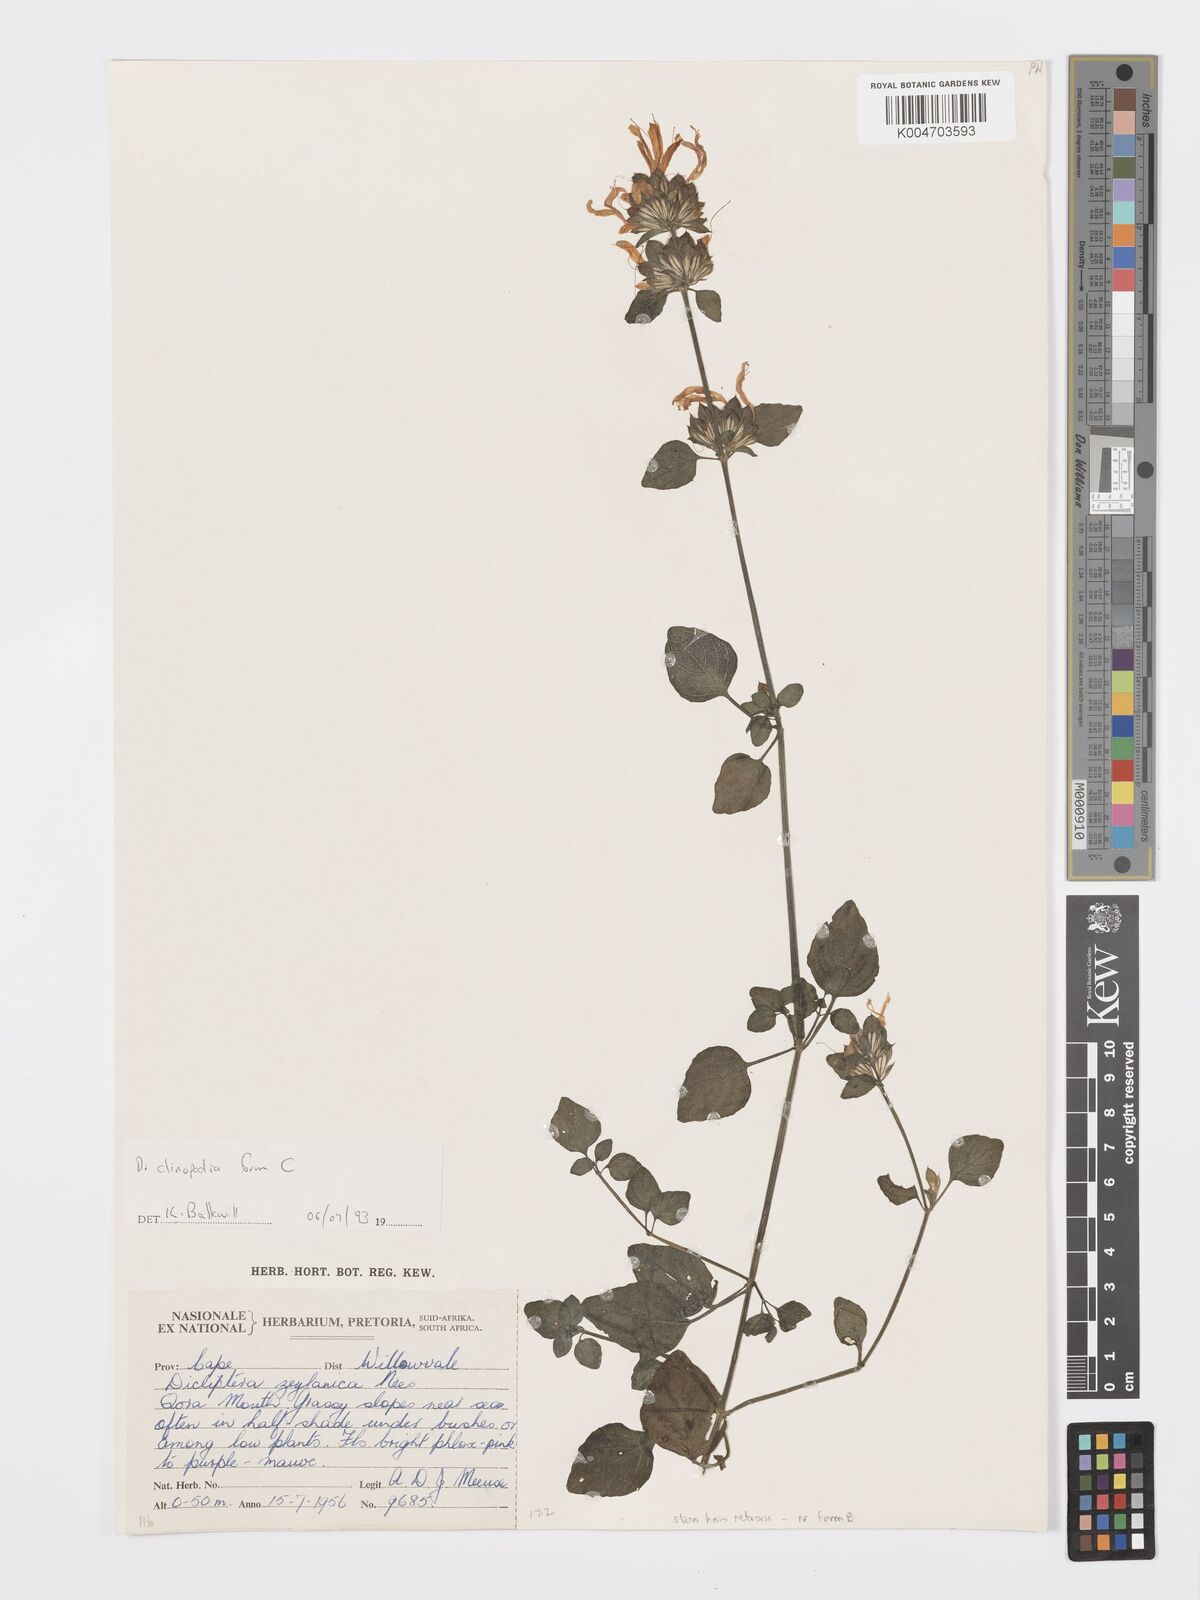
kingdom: Plantae
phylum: Tracheophyta
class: Magnoliopsida
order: Lamiales
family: Acanthaceae
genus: Dicliptera
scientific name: Dicliptera clinopodia
